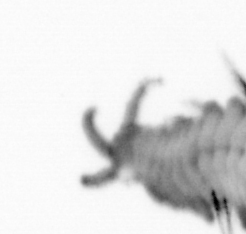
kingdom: Animalia
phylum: Arthropoda
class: Copepoda
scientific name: Copepoda
